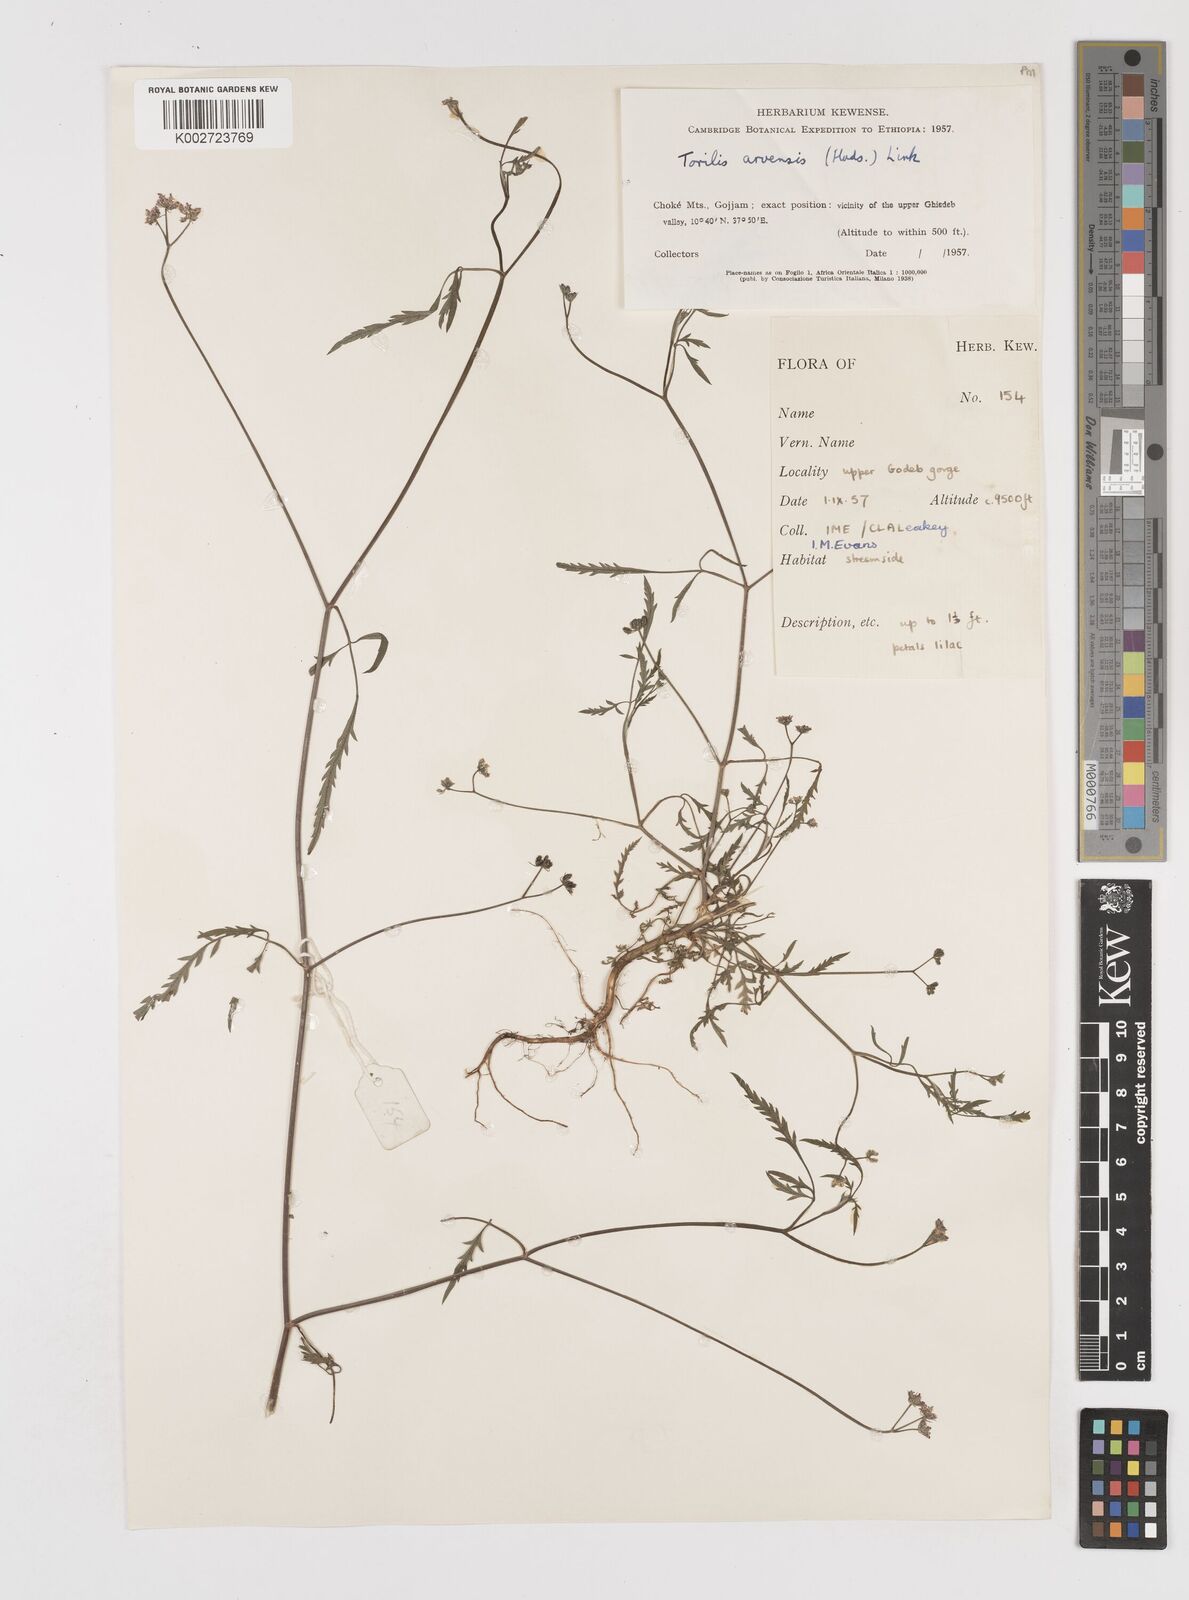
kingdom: Plantae
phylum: Tracheophyta
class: Magnoliopsida
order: Apiales
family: Apiaceae
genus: Torilis
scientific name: Torilis arvensis
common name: Spreading hedge-parsley
